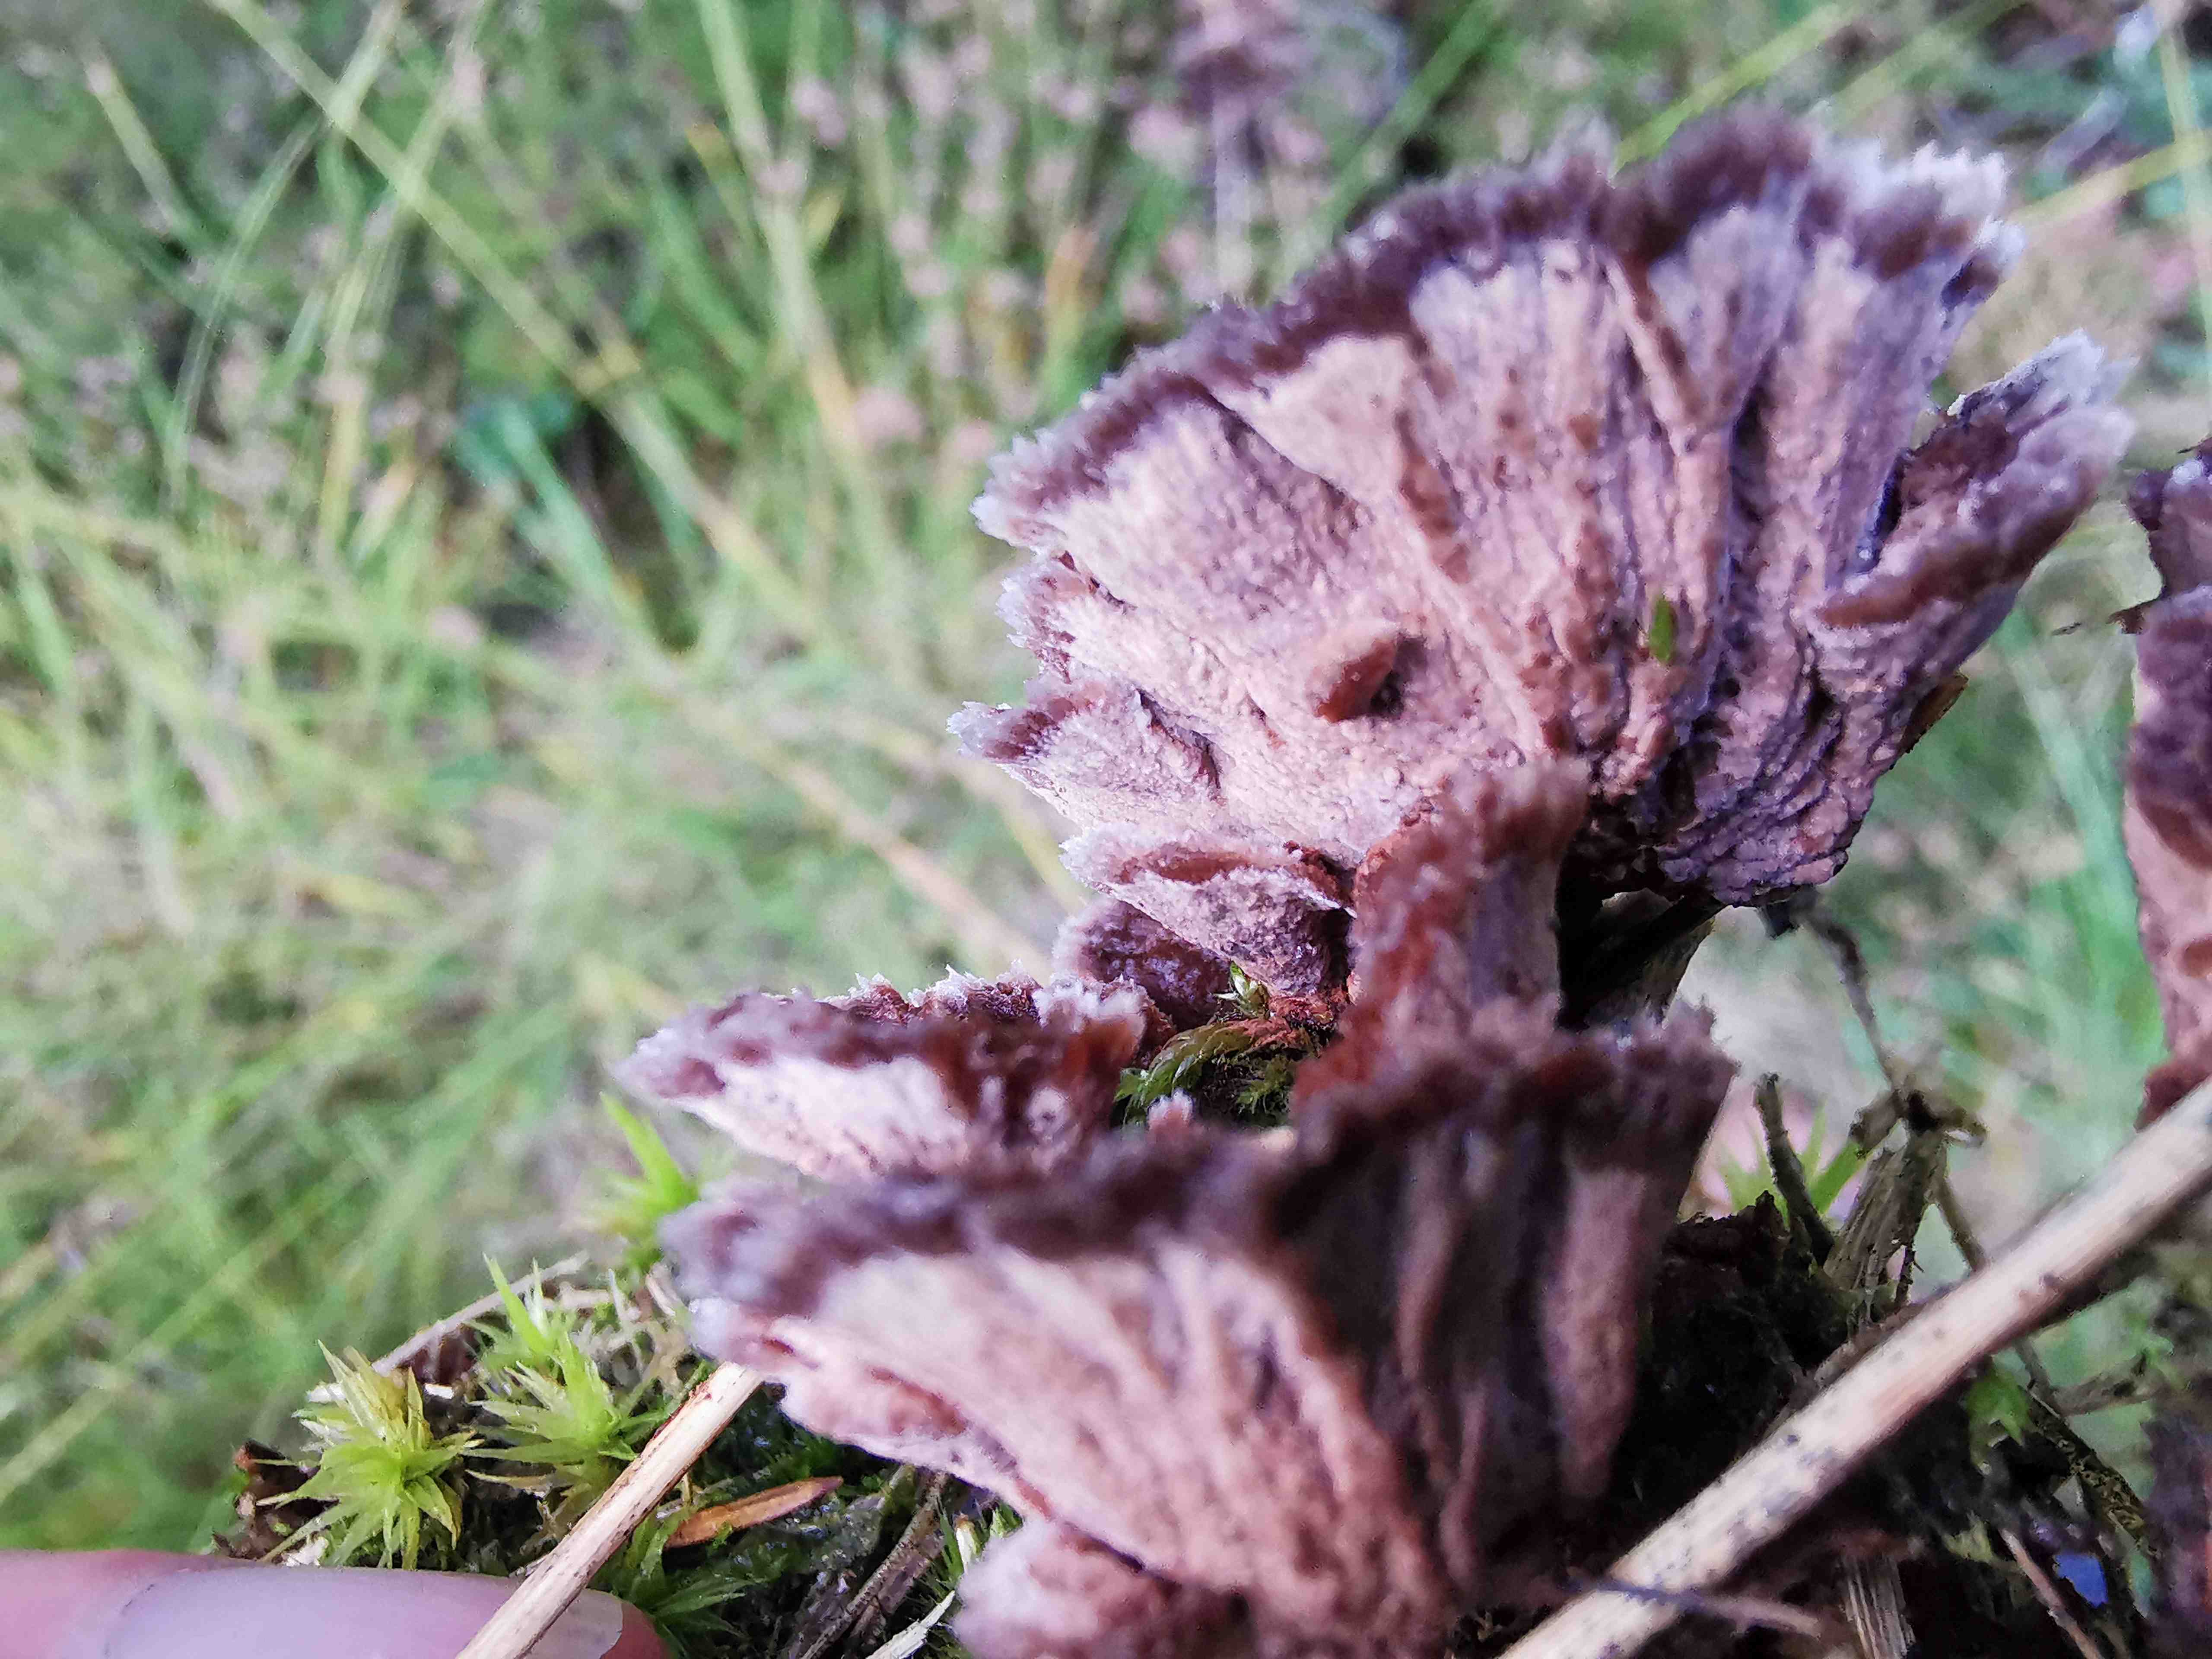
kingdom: Fungi
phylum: Basidiomycota
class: Agaricomycetes
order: Thelephorales
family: Thelephoraceae
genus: Thelephora
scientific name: Thelephora terrestris
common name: fliget frynsesvamp
